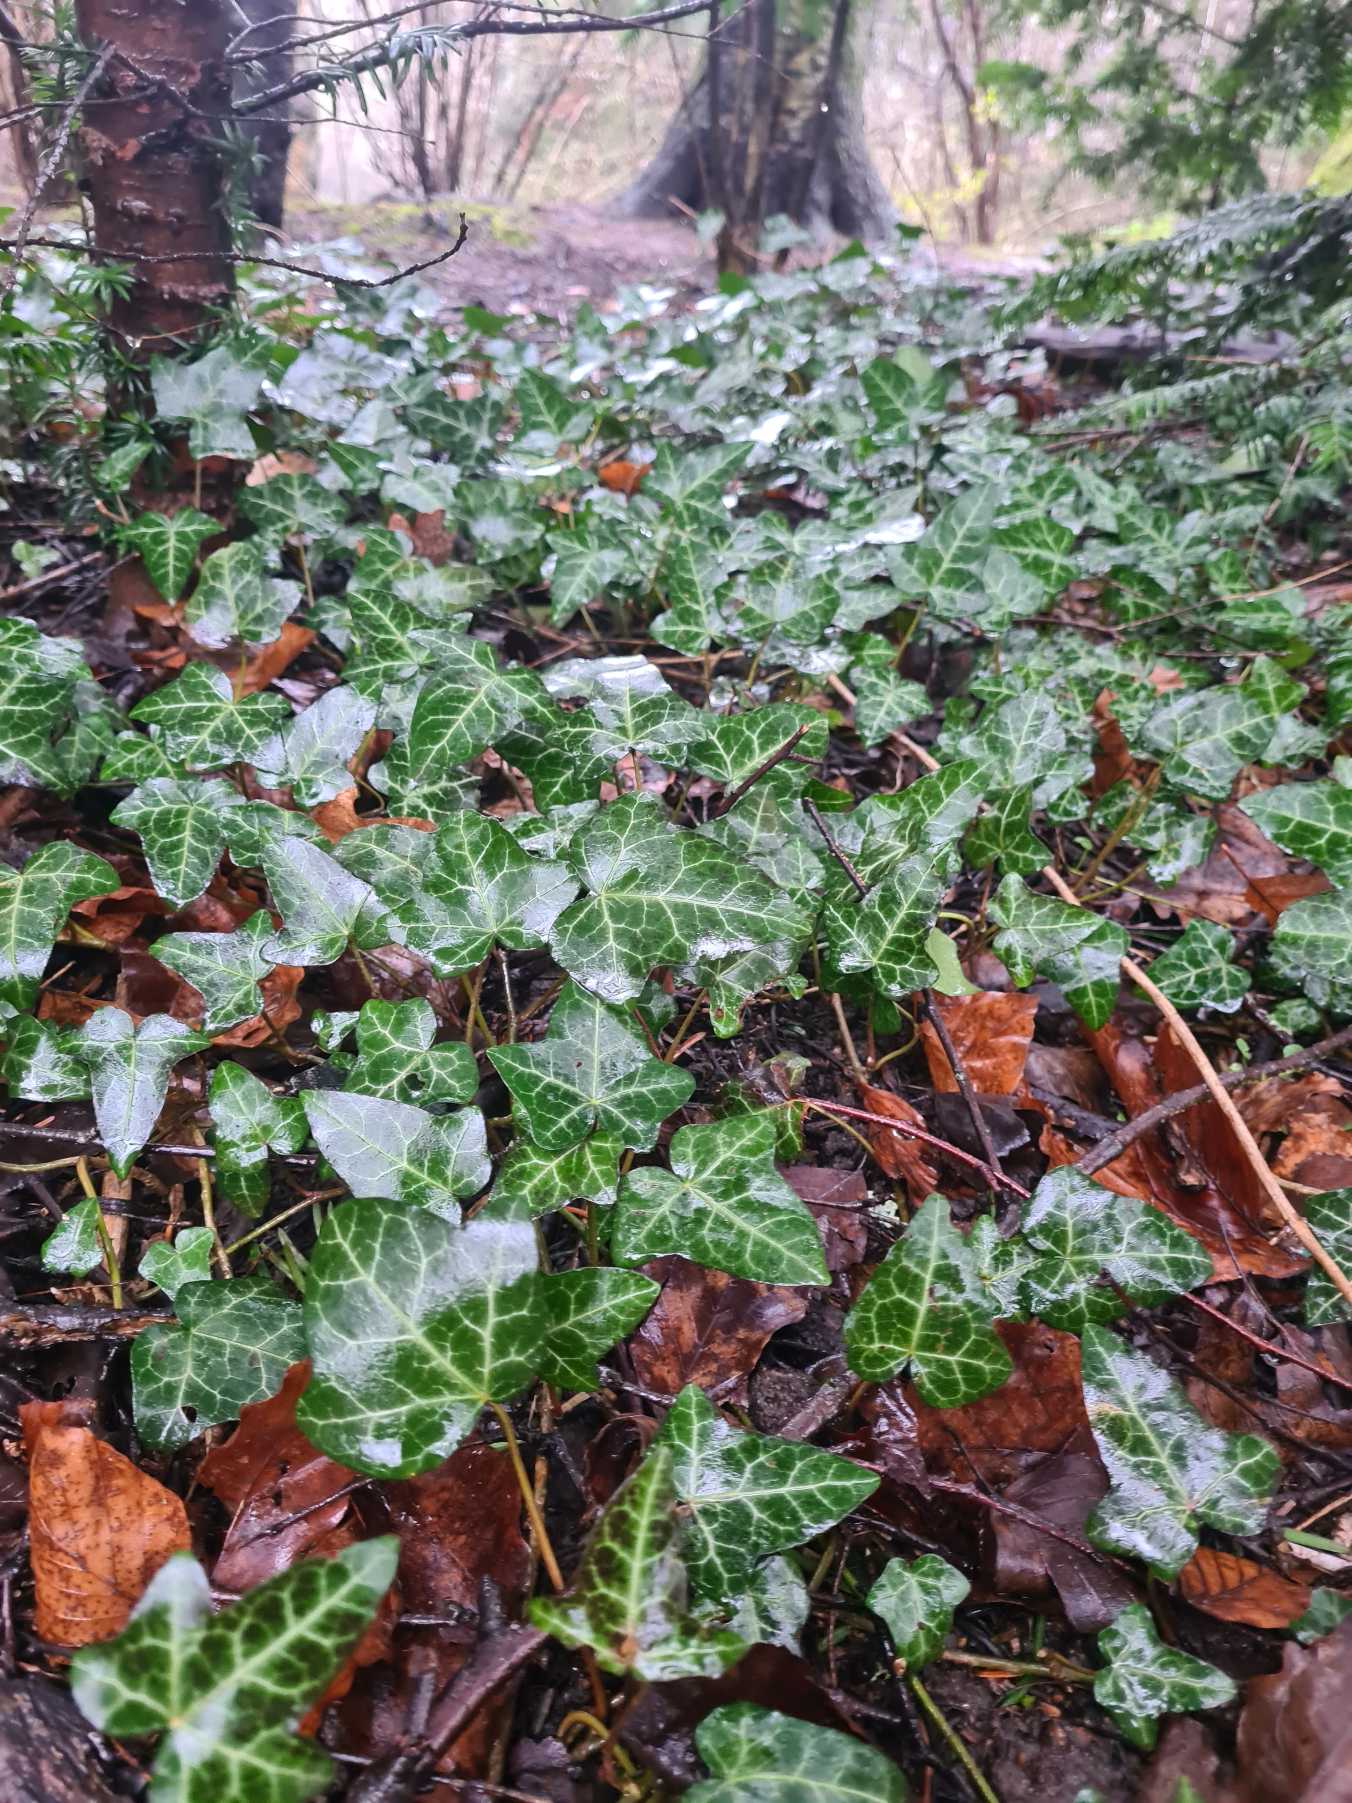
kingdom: Plantae
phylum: Tracheophyta
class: Magnoliopsida
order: Apiales
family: Araliaceae
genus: Hedera
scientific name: Hedera helix
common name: Vedbend
